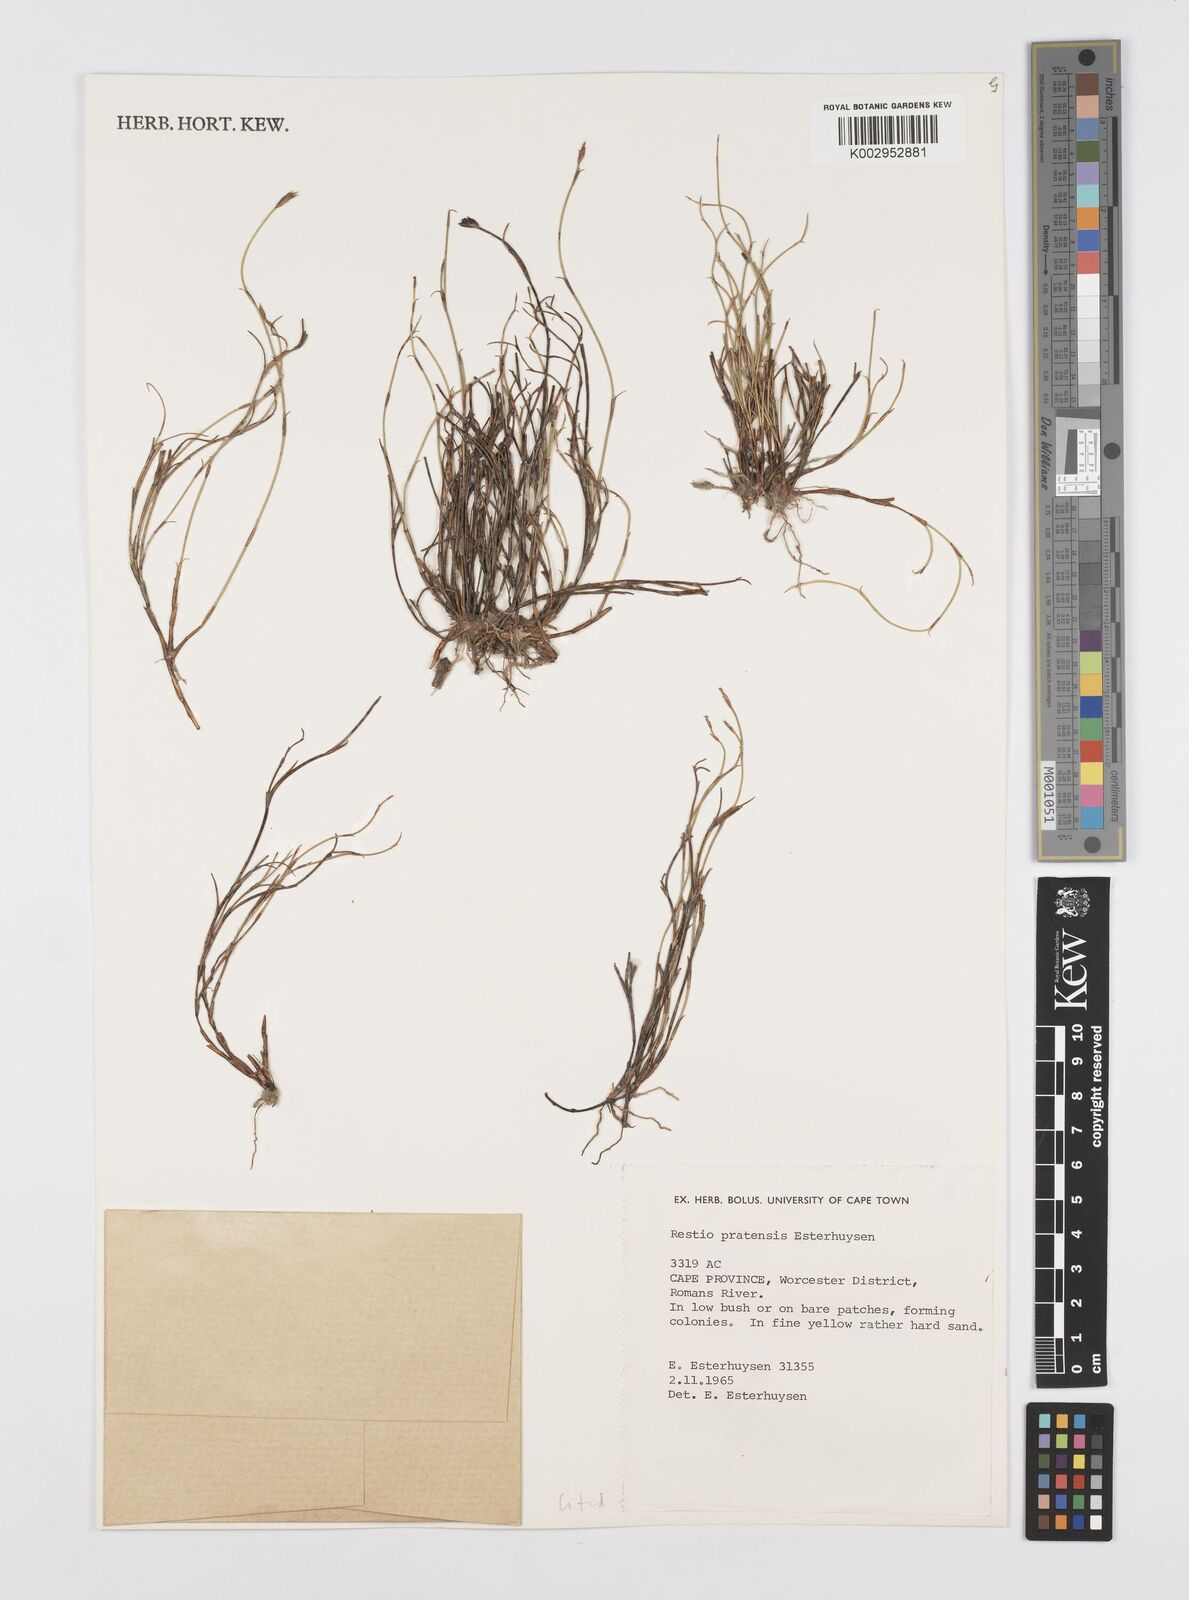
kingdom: Plantae
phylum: Tracheophyta
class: Liliopsida
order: Poales
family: Restionaceae
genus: Restio
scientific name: Restio pratensis
